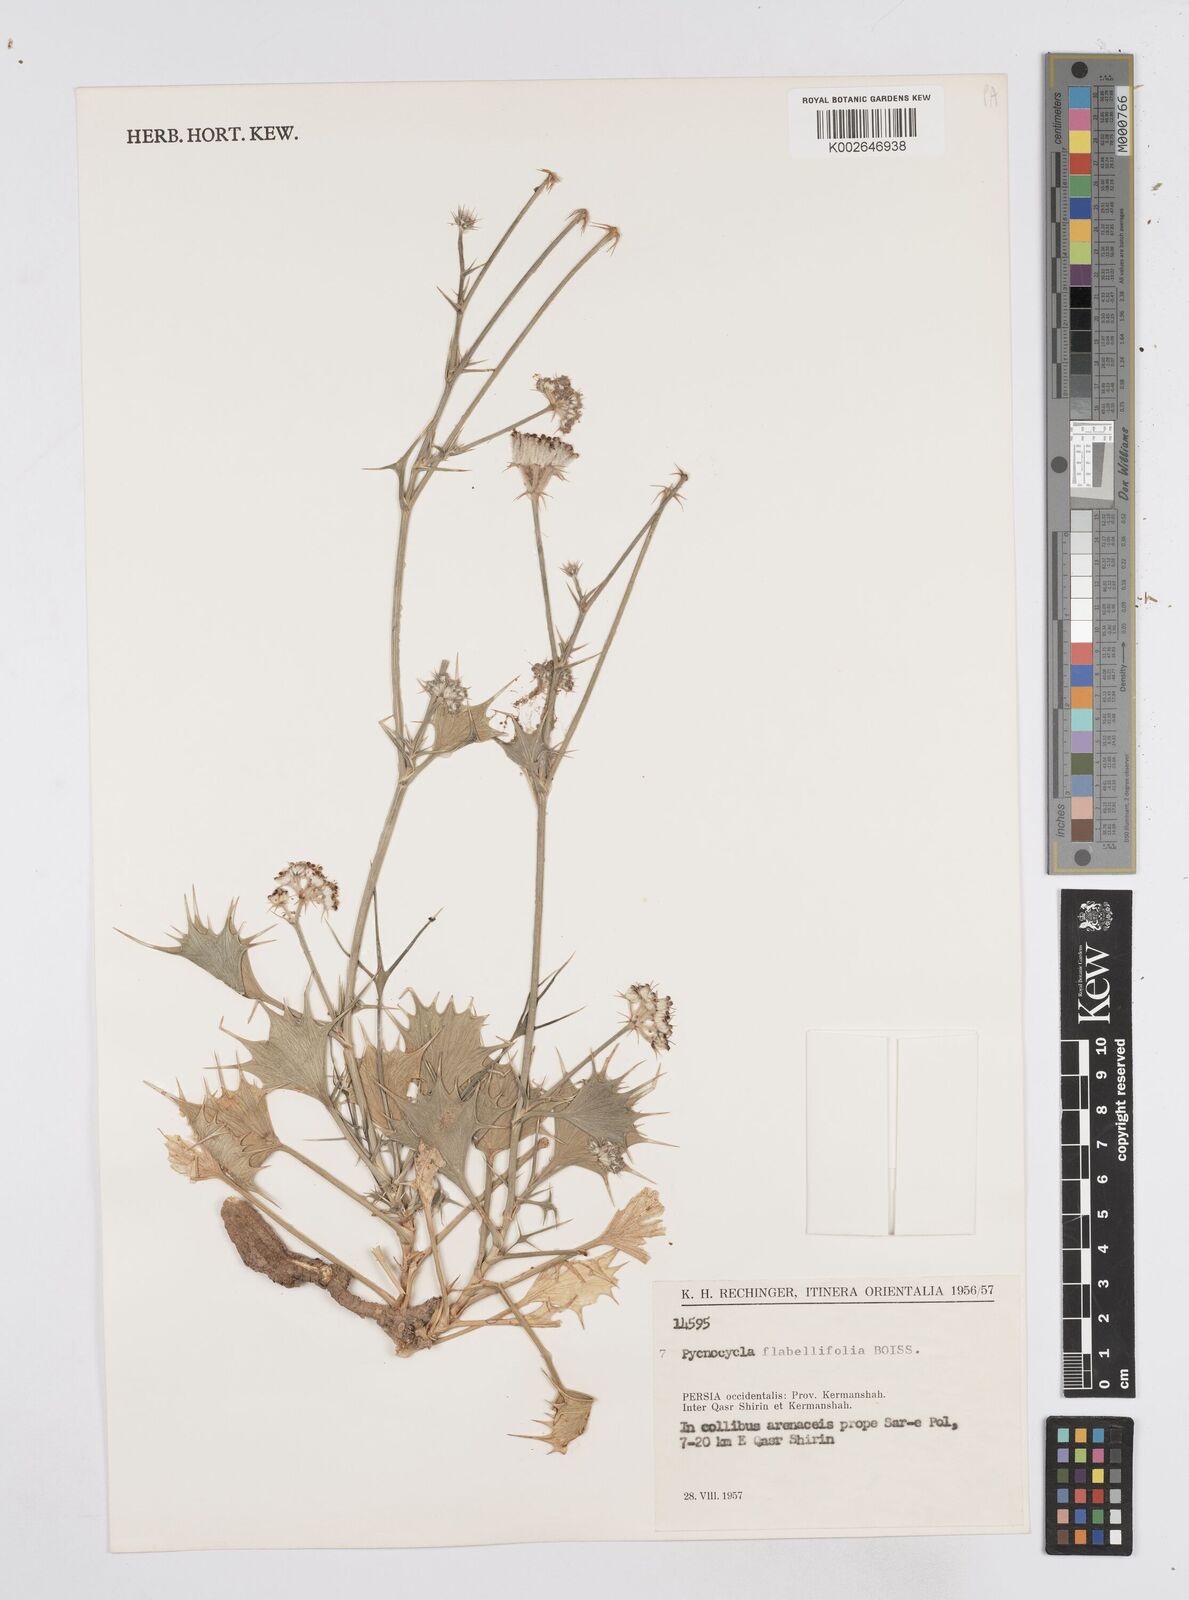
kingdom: Plantae
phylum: Tracheophyta
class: Magnoliopsida
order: Apiales
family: Apiaceae
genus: Pycnocycla
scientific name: Pycnocycla flabellifolia
